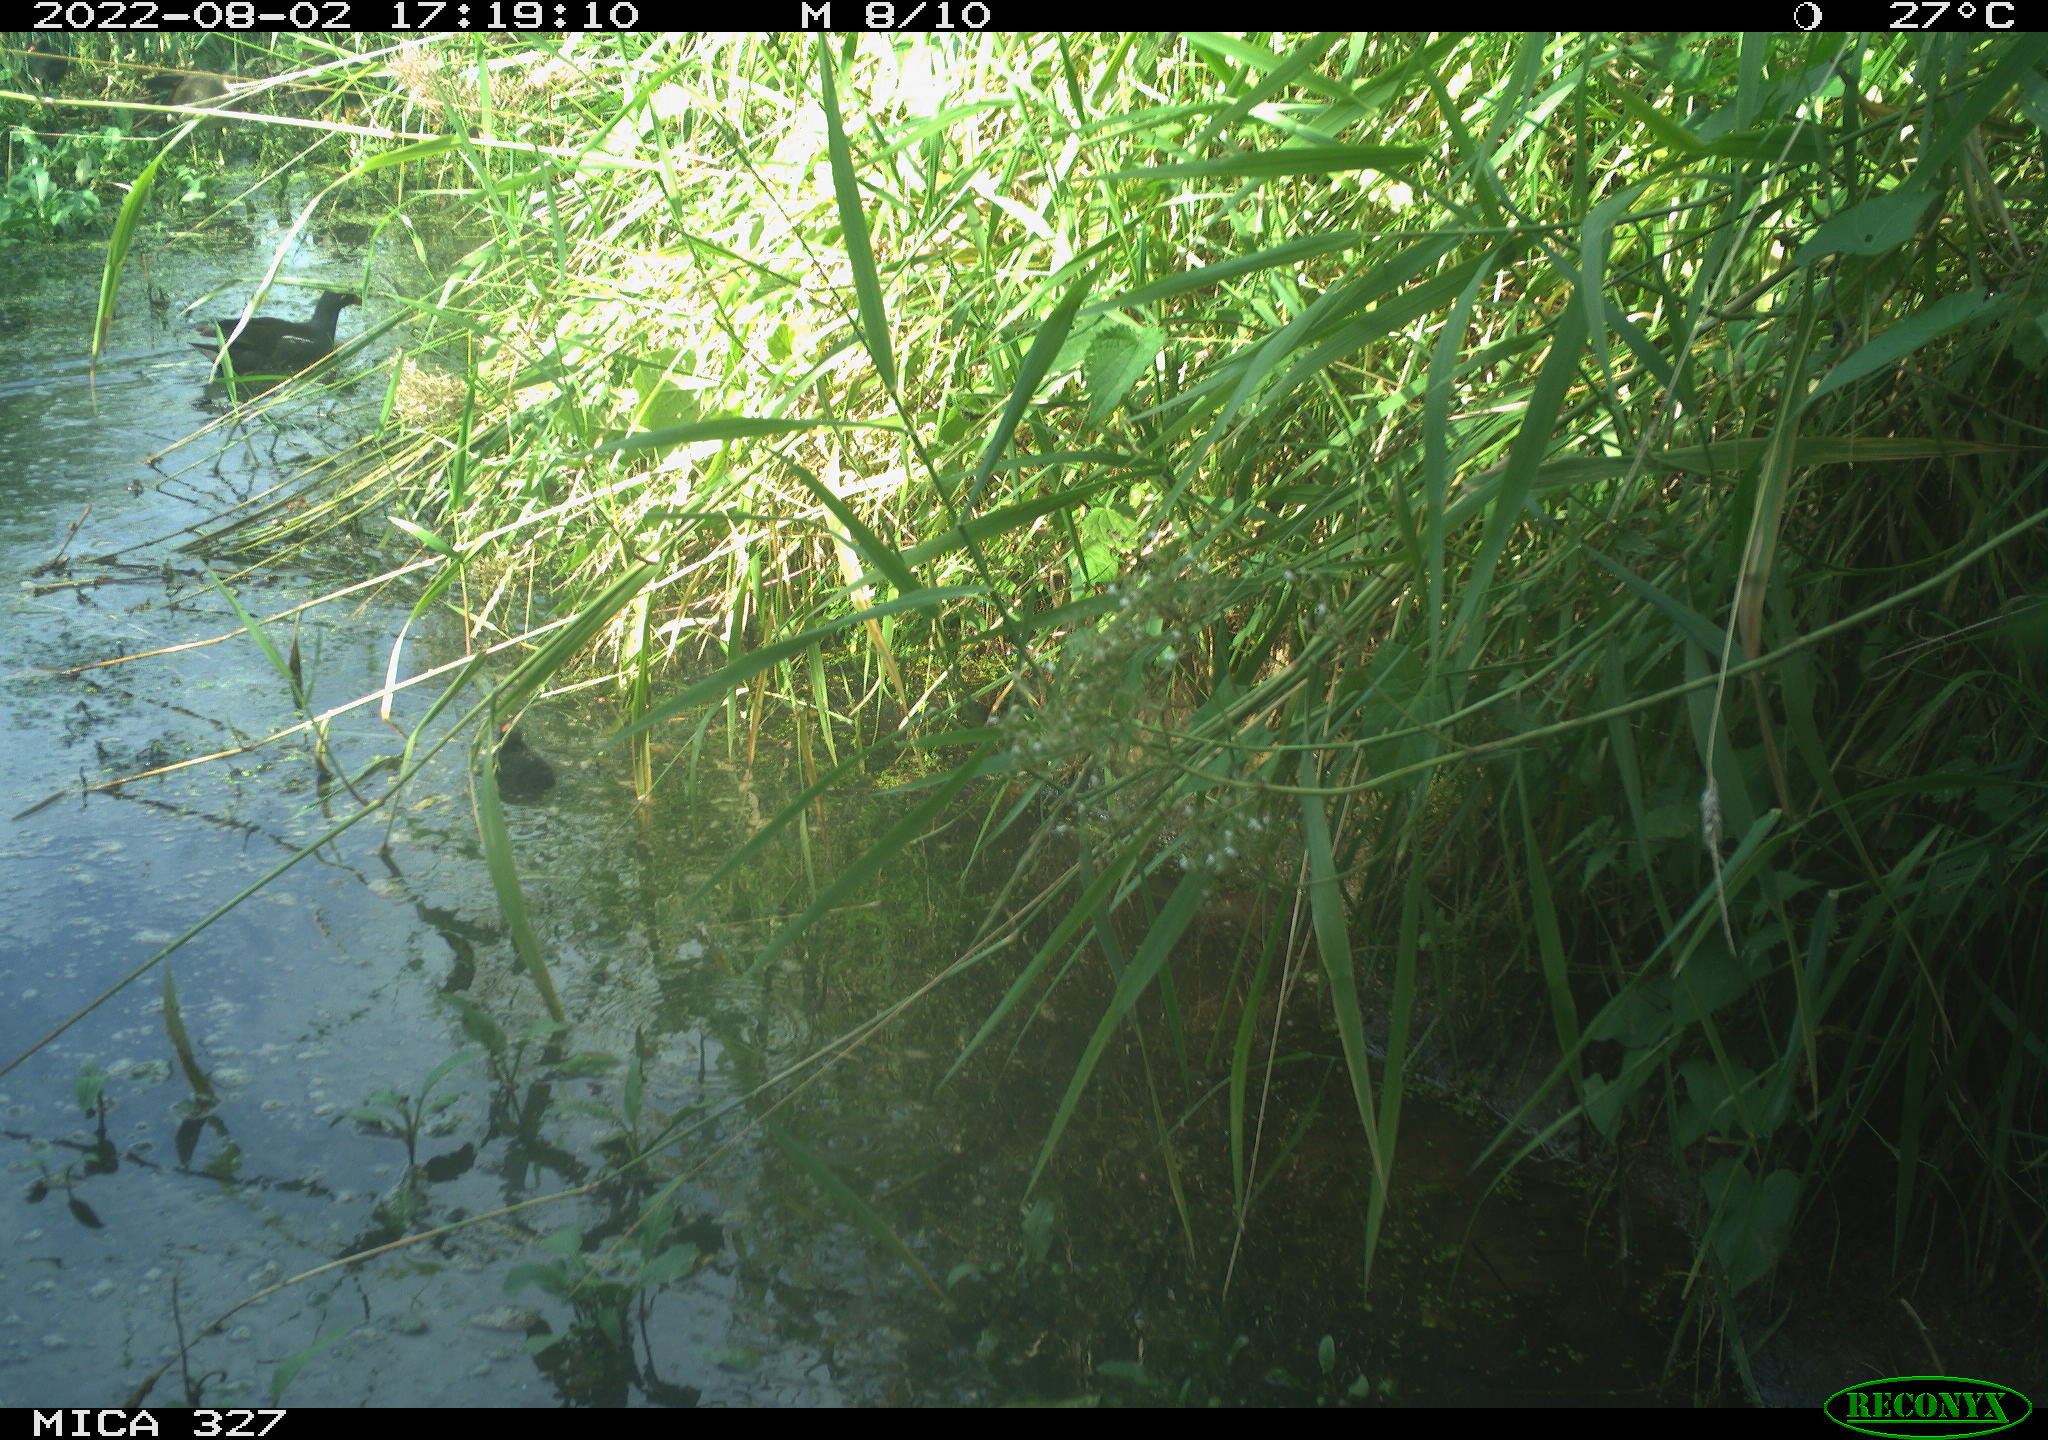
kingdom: Animalia
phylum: Chordata
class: Aves
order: Gruiformes
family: Rallidae
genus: Gallinula
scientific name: Gallinula chloropus
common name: Common moorhen
